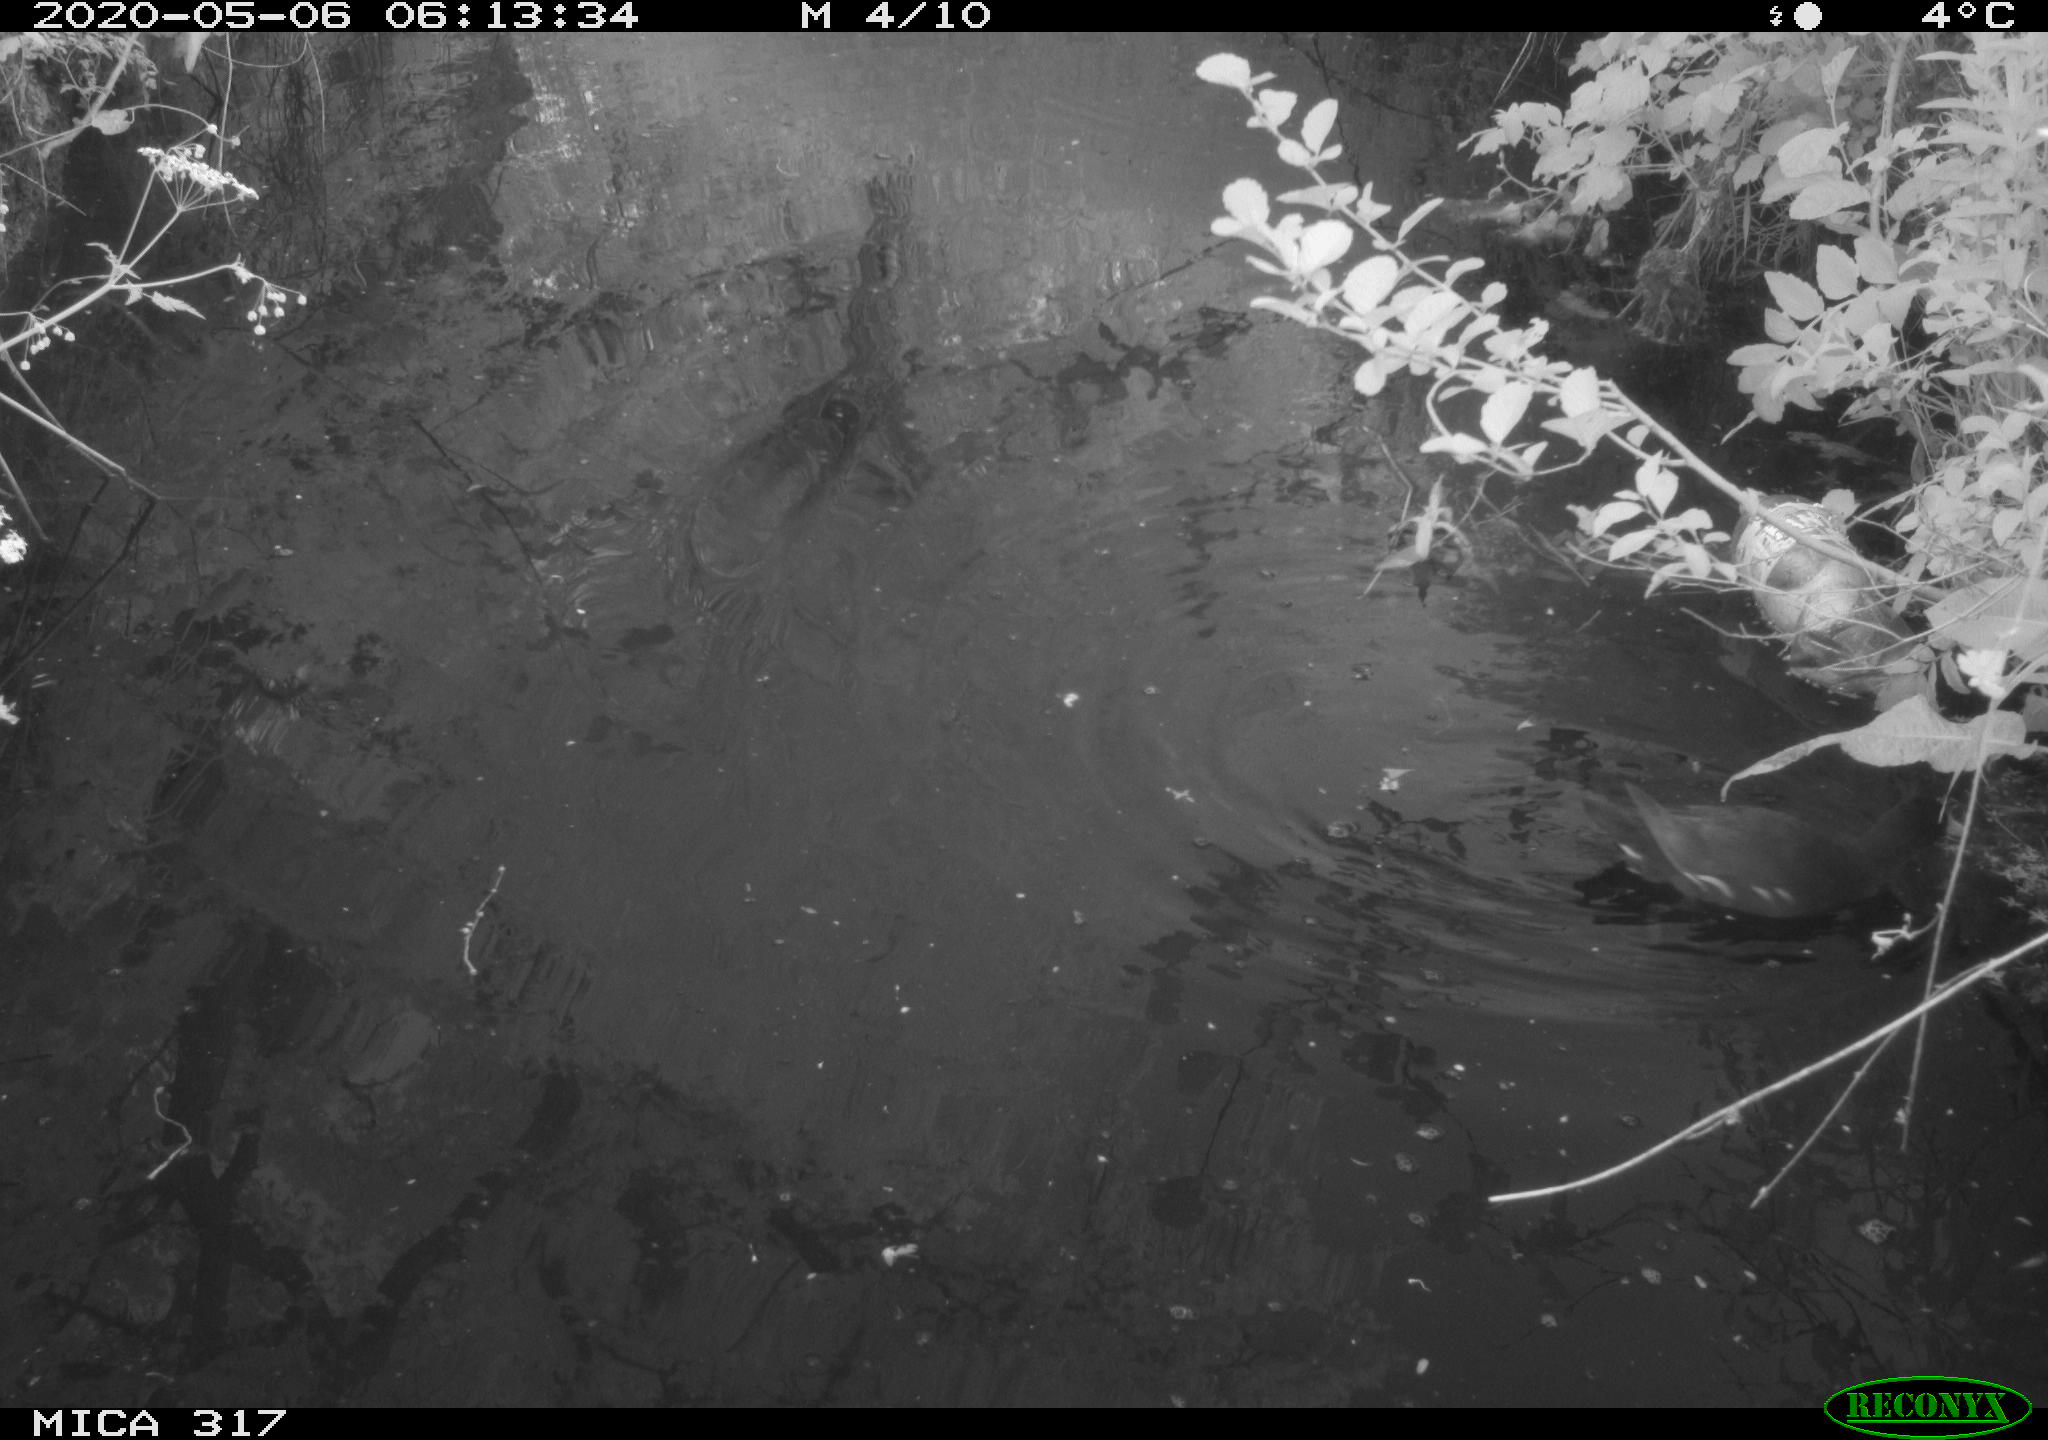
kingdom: Animalia
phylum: Chordata
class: Aves
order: Gruiformes
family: Rallidae
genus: Gallinula
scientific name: Gallinula chloropus
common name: Common moorhen
